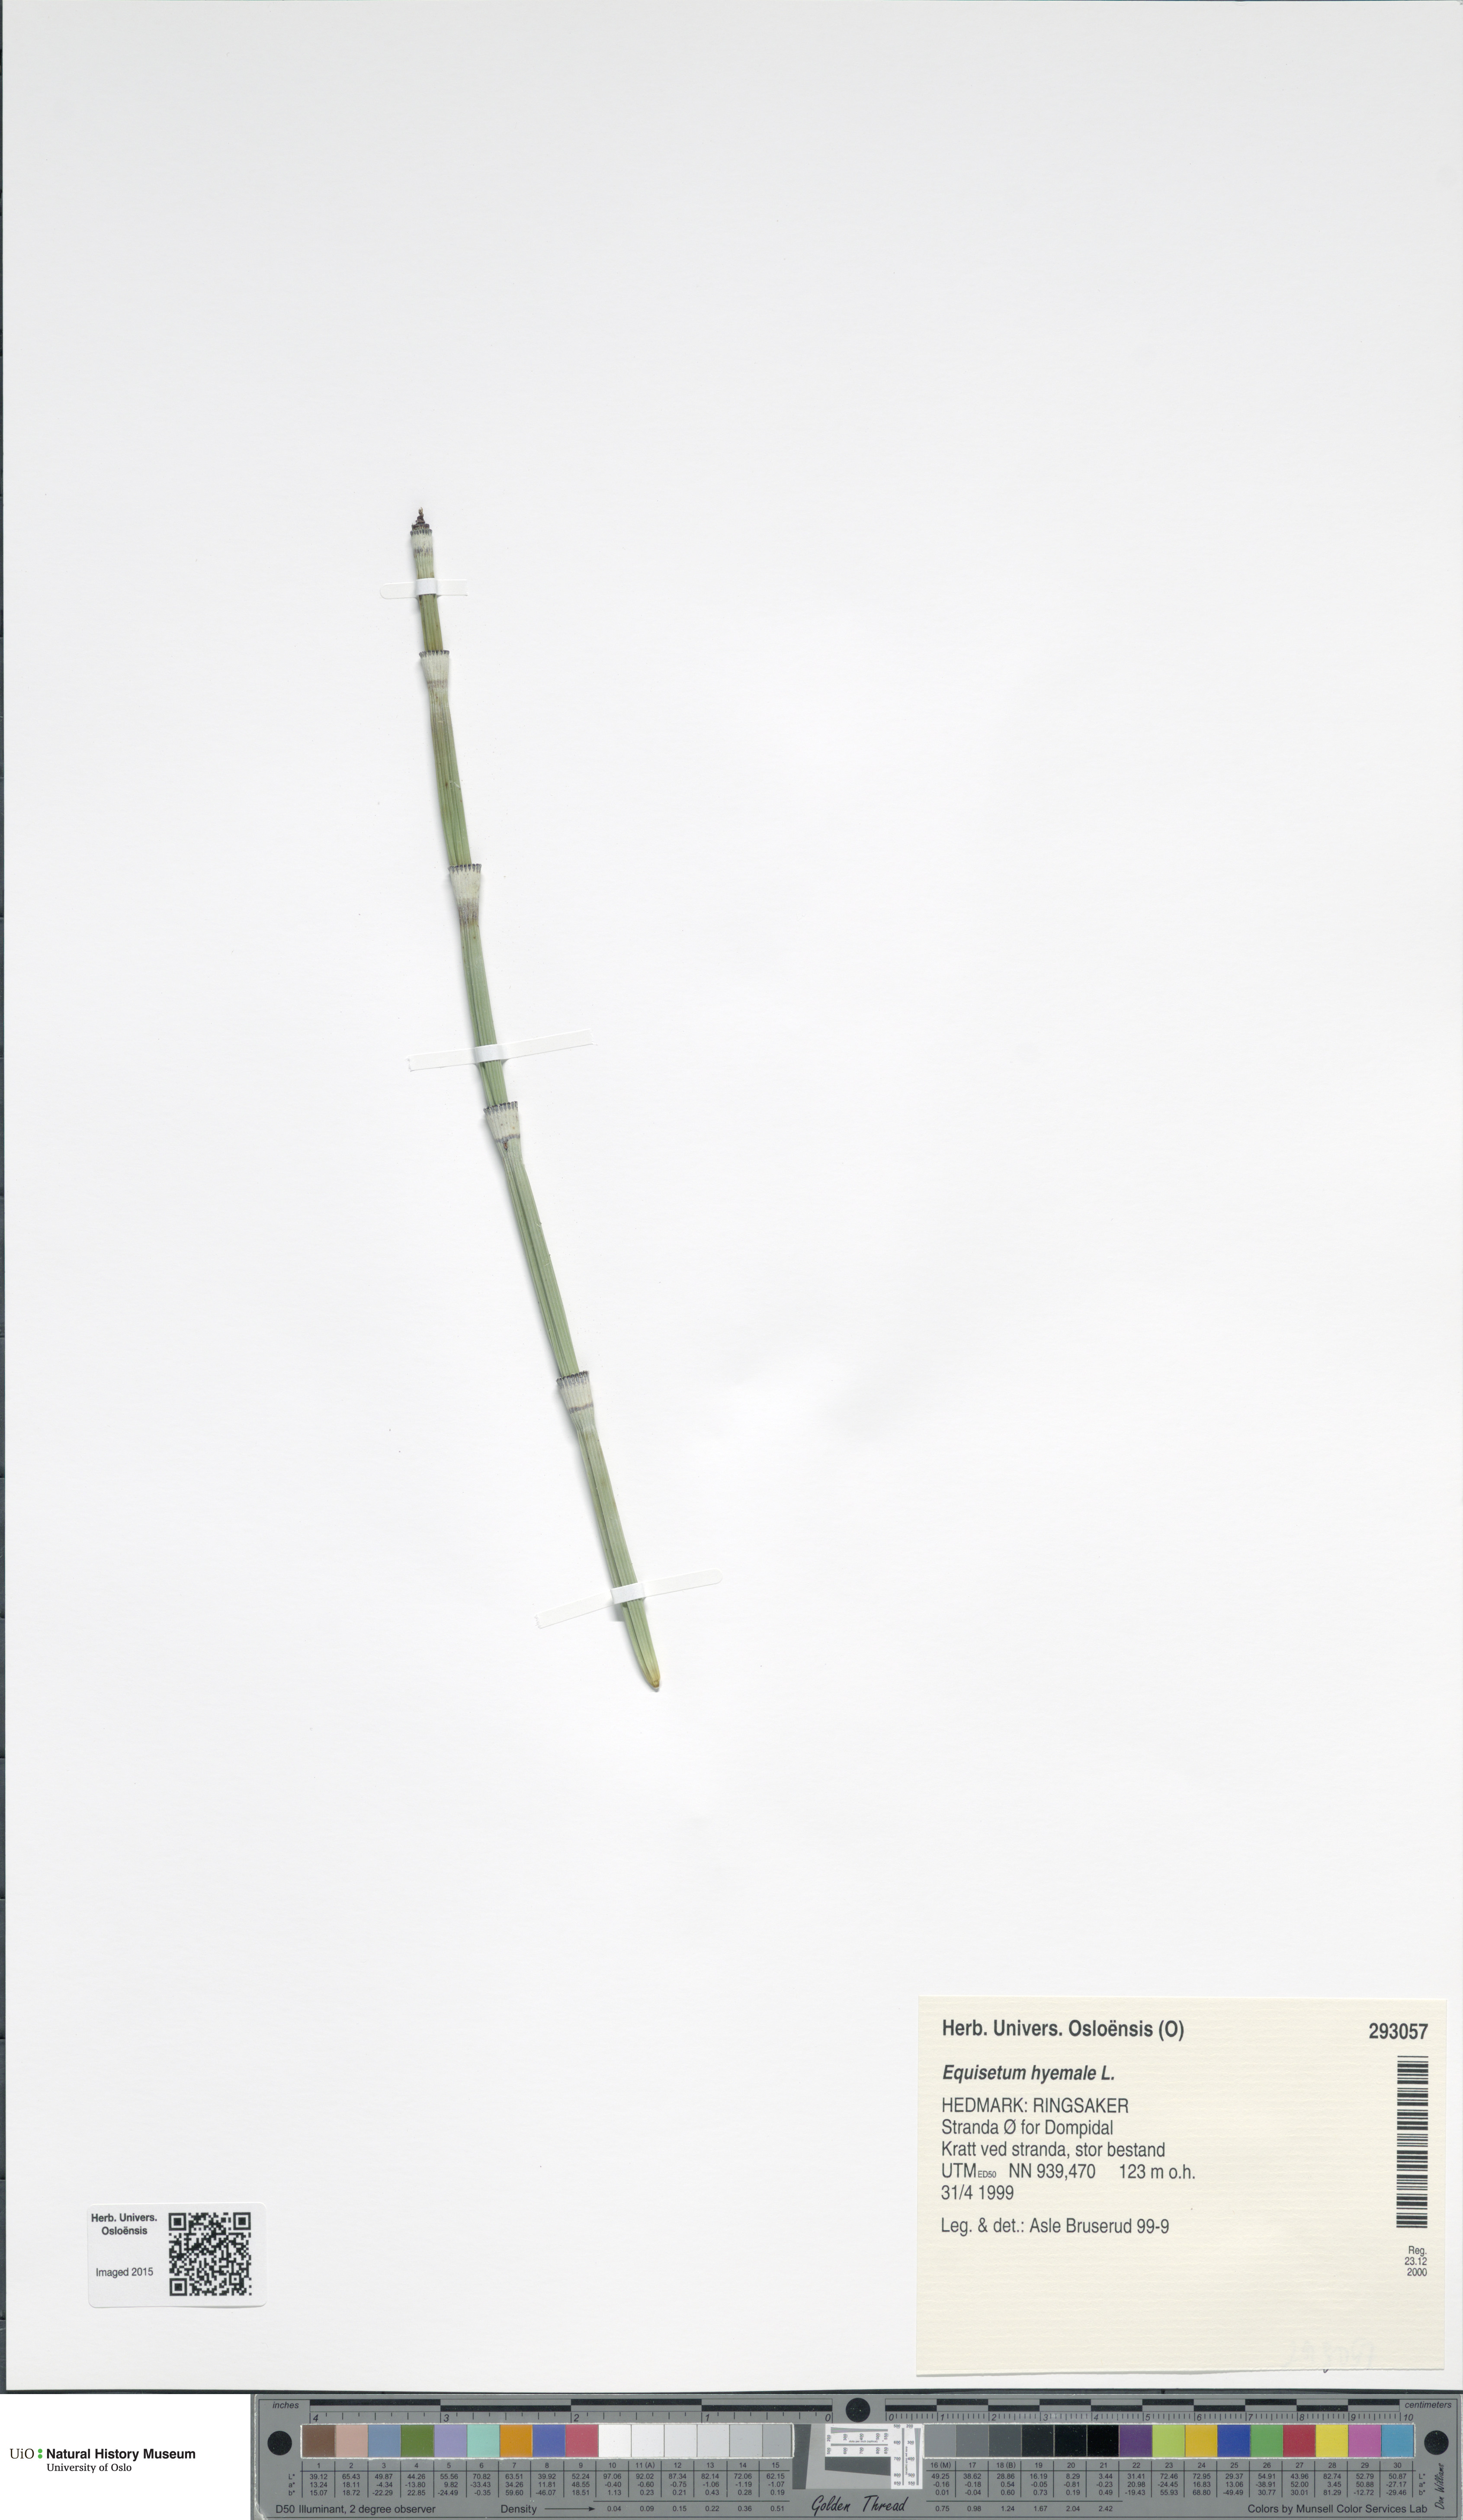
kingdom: Plantae
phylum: Tracheophyta
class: Polypodiopsida
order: Equisetales
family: Equisetaceae
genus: Equisetum
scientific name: Equisetum hyemale
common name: Rough horsetail
